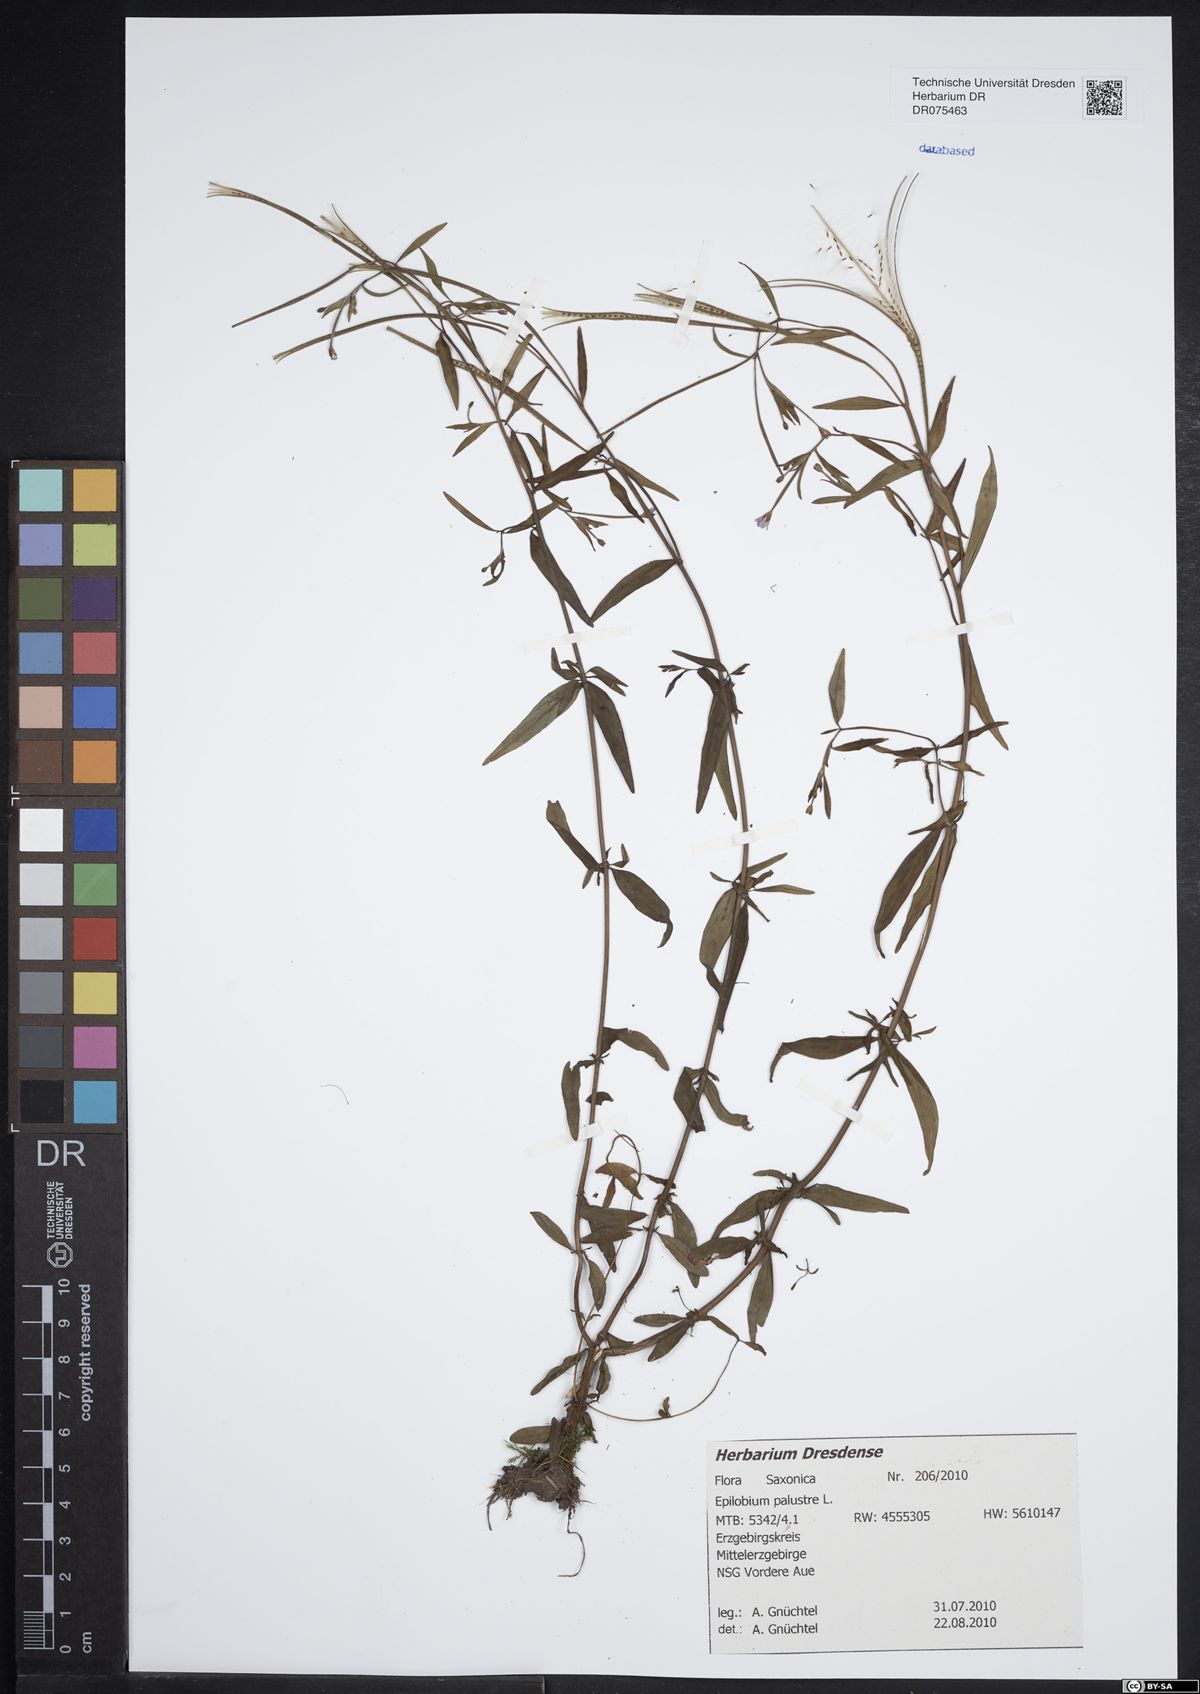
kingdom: Plantae
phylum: Tracheophyta
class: Magnoliopsida
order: Myrtales
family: Onagraceae
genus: Epilobium
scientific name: Epilobium palustre
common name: Marsh willowherb
